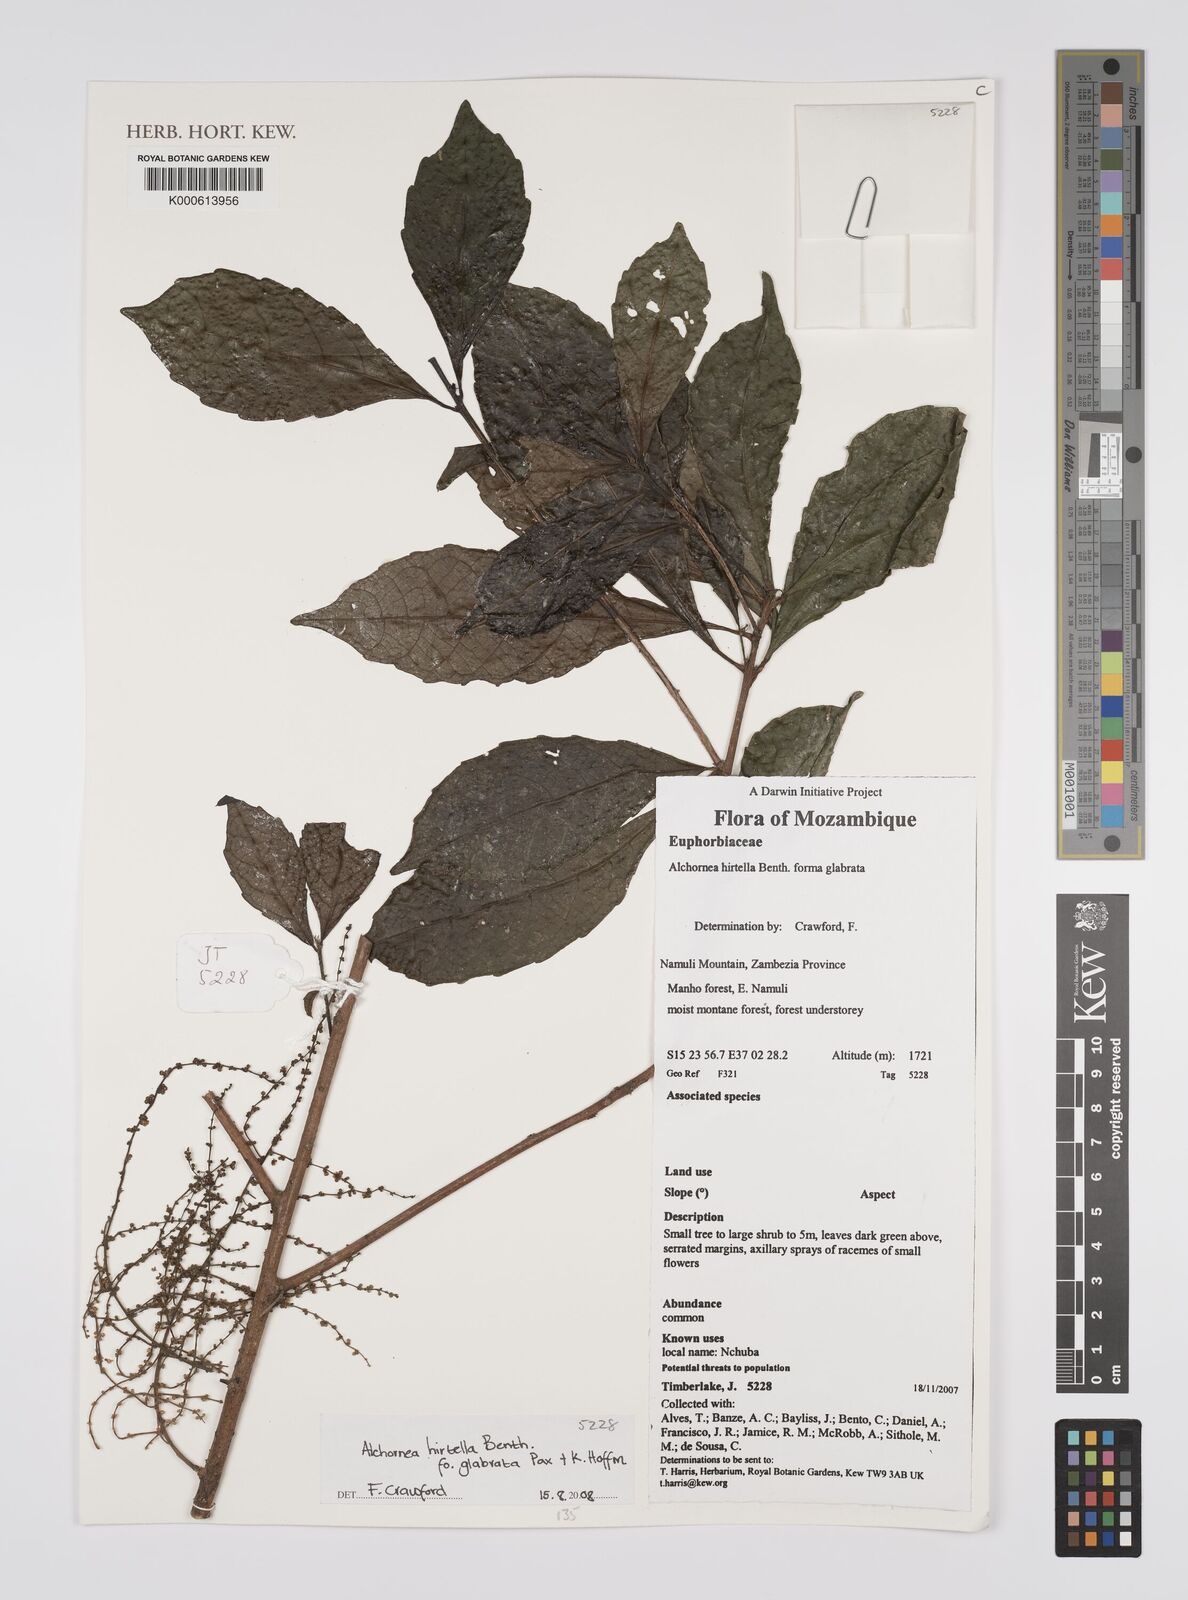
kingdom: Plantae
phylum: Tracheophyta
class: Magnoliopsida
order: Malpighiales
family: Euphorbiaceae
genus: Alchornea
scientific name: Alchornea hirtella
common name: Forest bead-string
